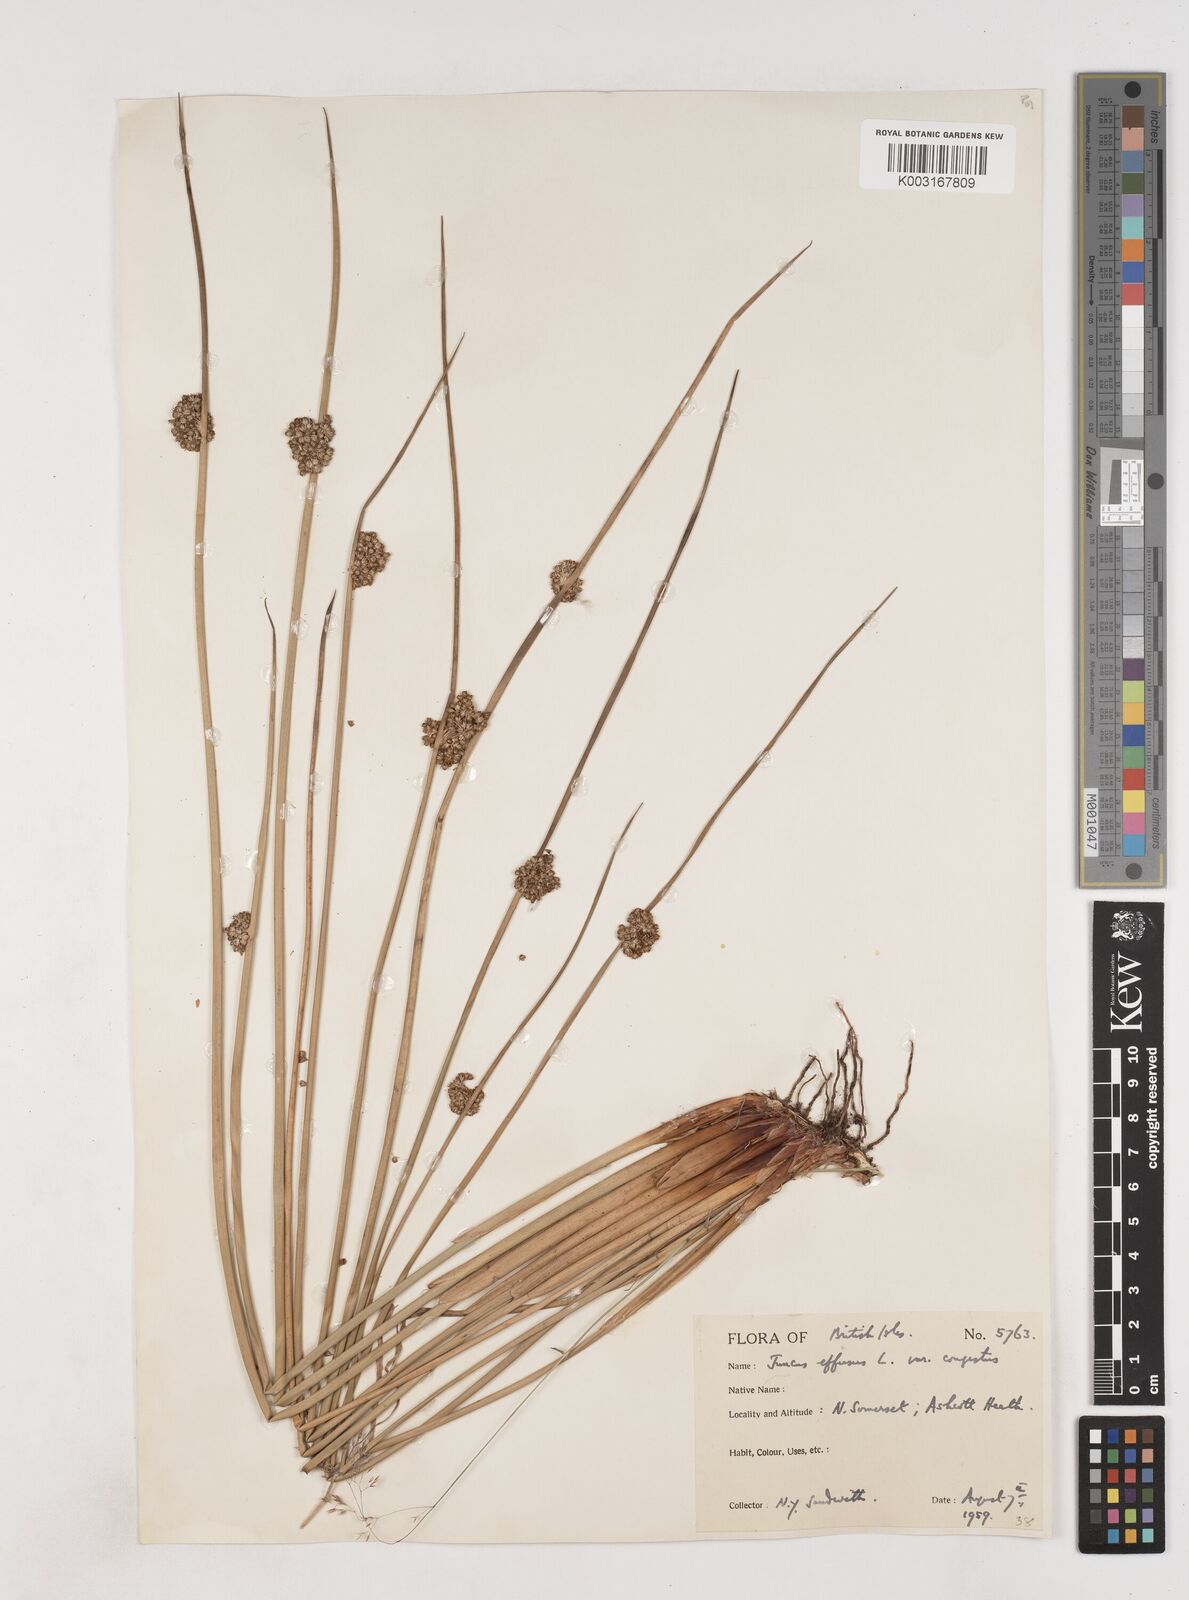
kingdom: Plantae
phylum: Tracheophyta
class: Liliopsida
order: Poales
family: Juncaceae
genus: Juncus
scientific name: Juncus effusus
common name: Soft rush
